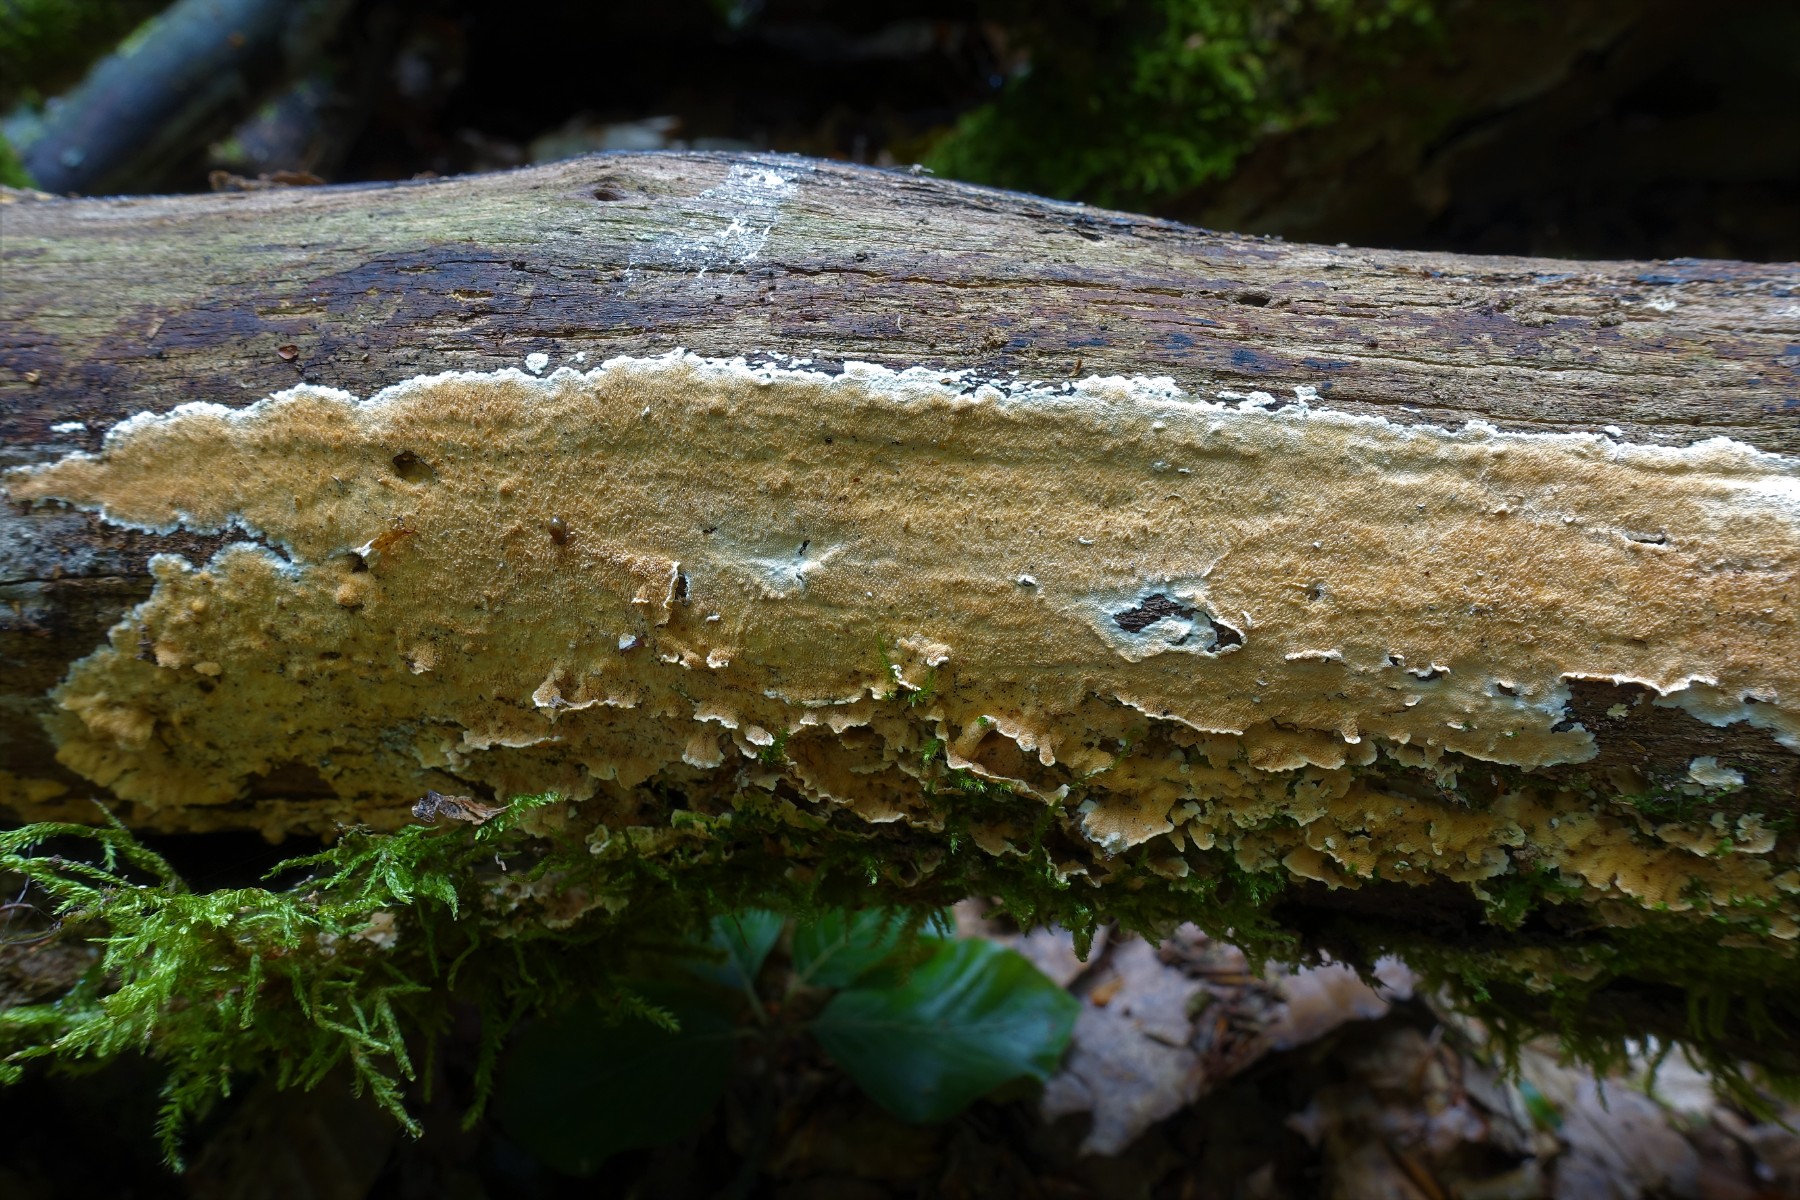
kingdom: Fungi
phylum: Basidiomycota
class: Agaricomycetes
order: Polyporales
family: Steccherinaceae
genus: Steccherinum
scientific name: Steccherinum ochraceum
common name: almindelig skønpig
